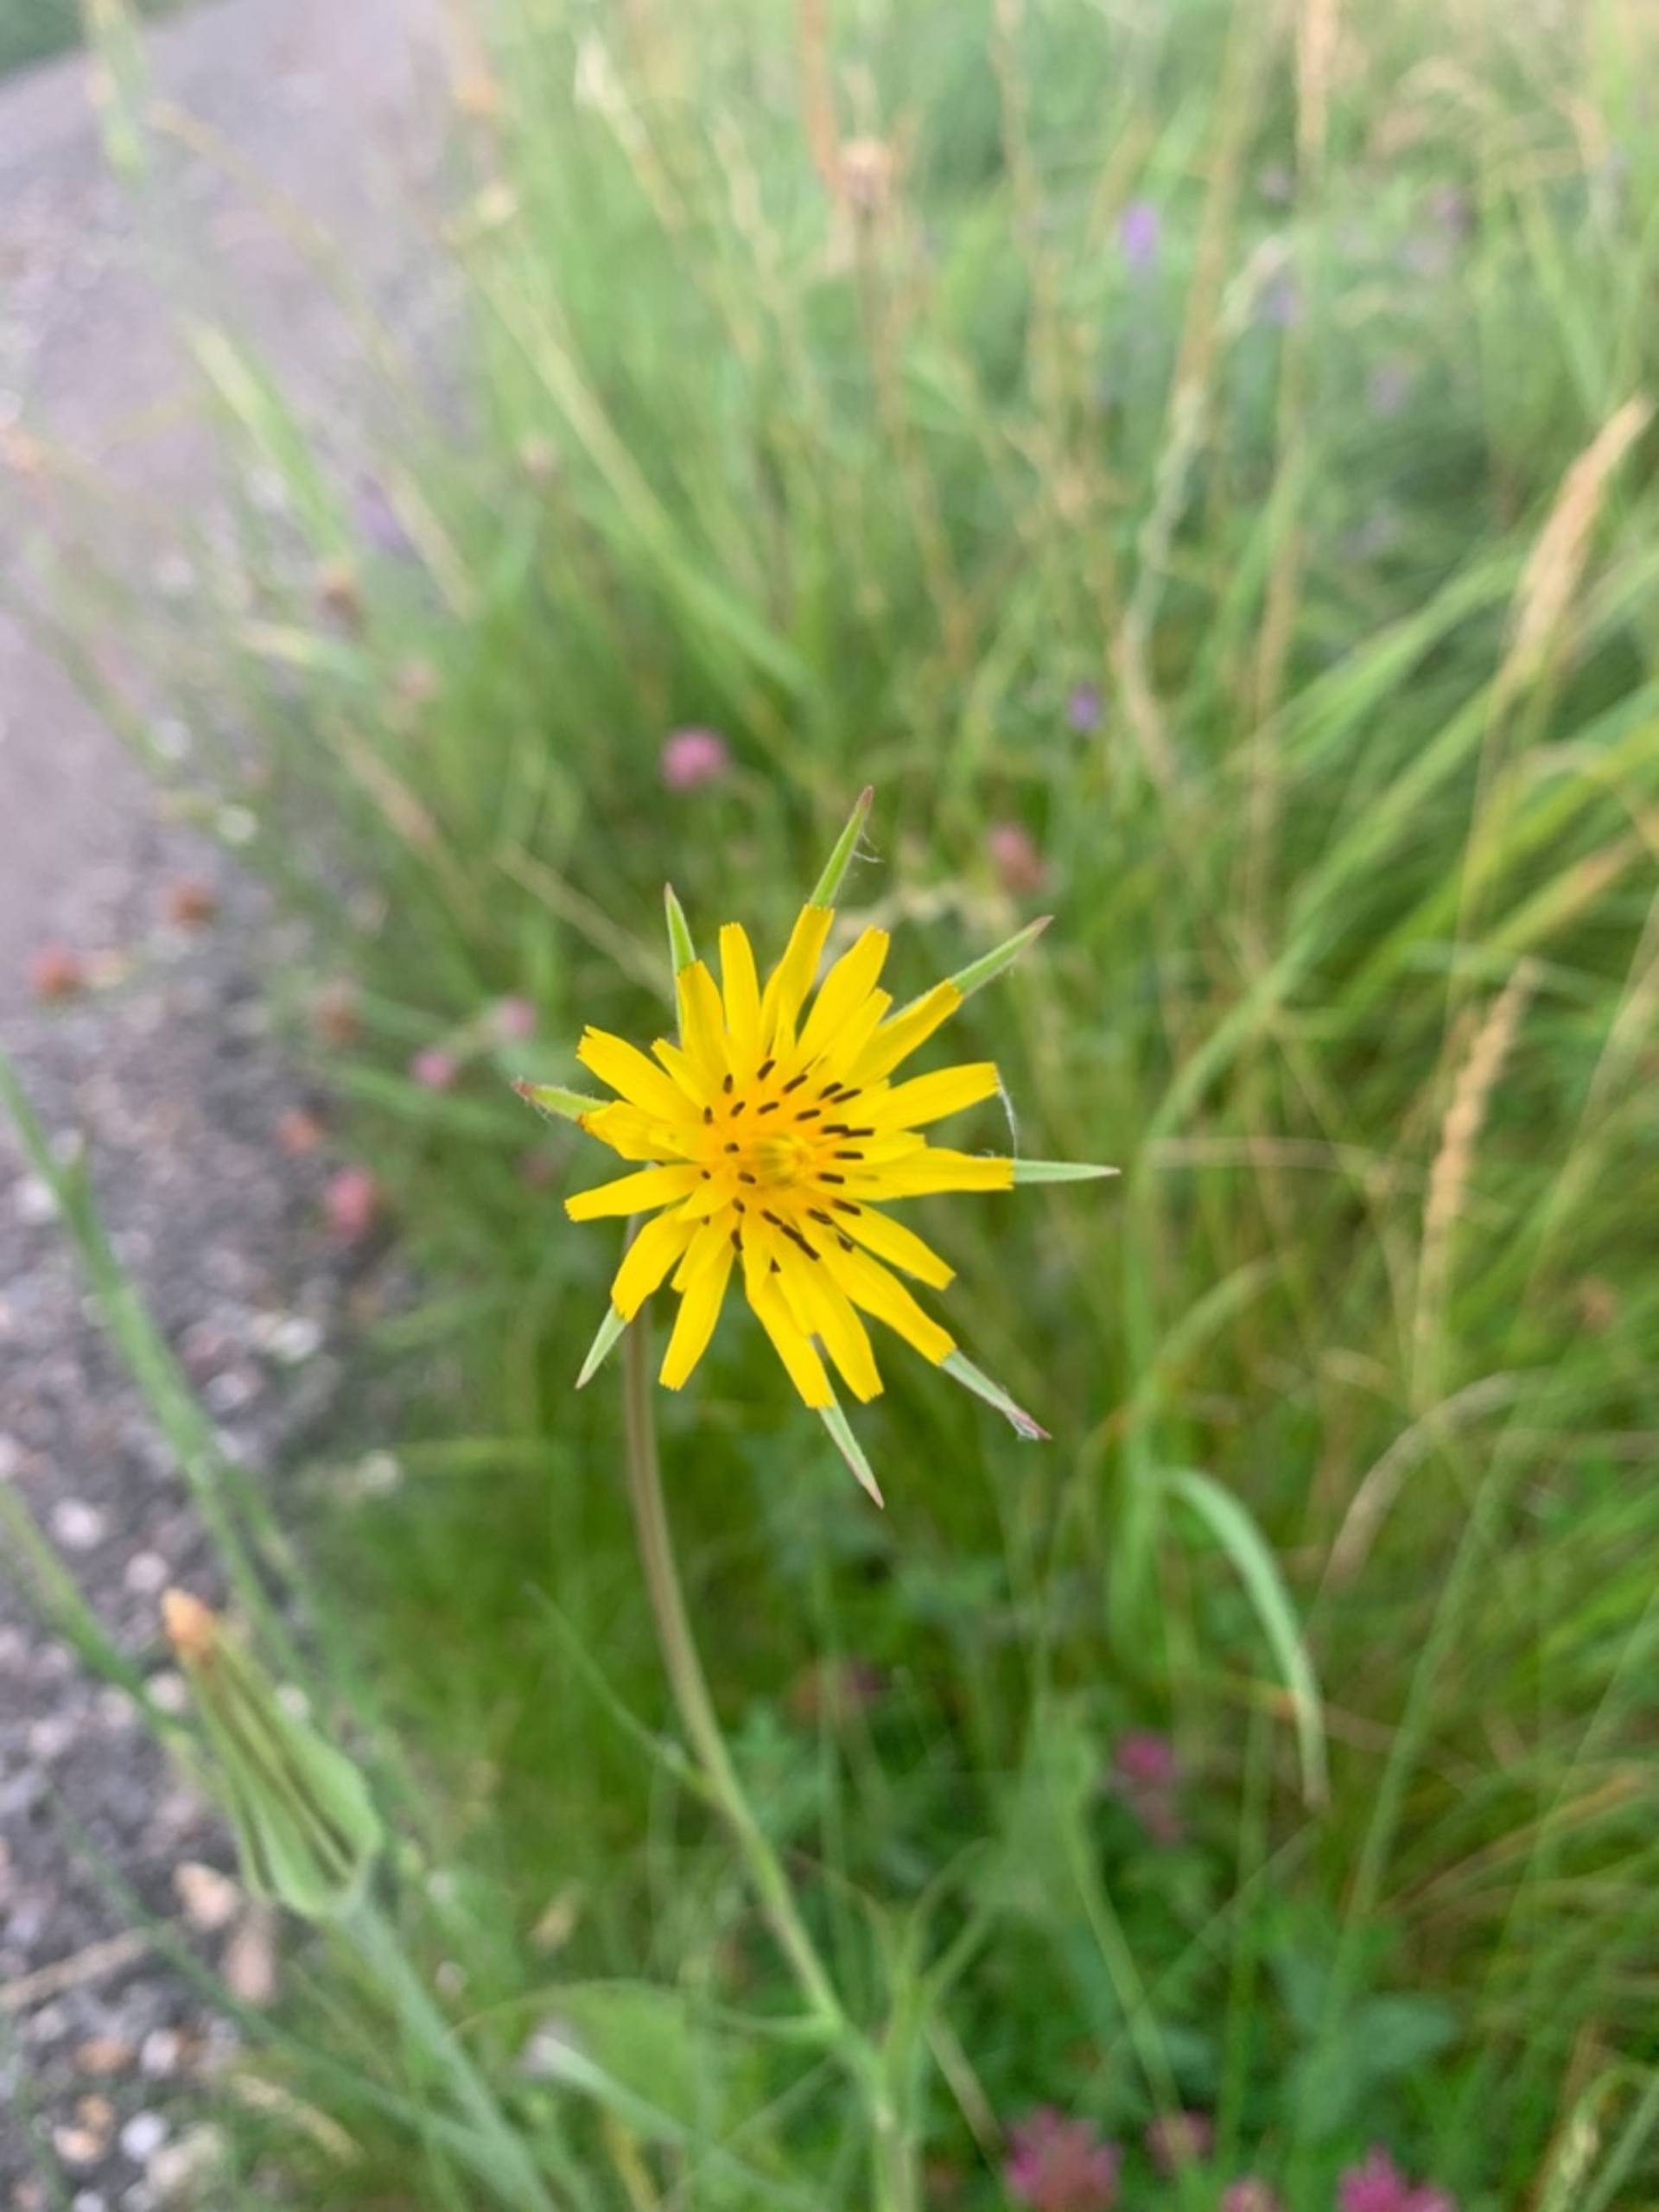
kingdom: Plantae
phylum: Tracheophyta
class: Magnoliopsida
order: Asterales
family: Asteraceae
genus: Tragopogon
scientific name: Tragopogon minor
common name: Småkronet gedeskæg
